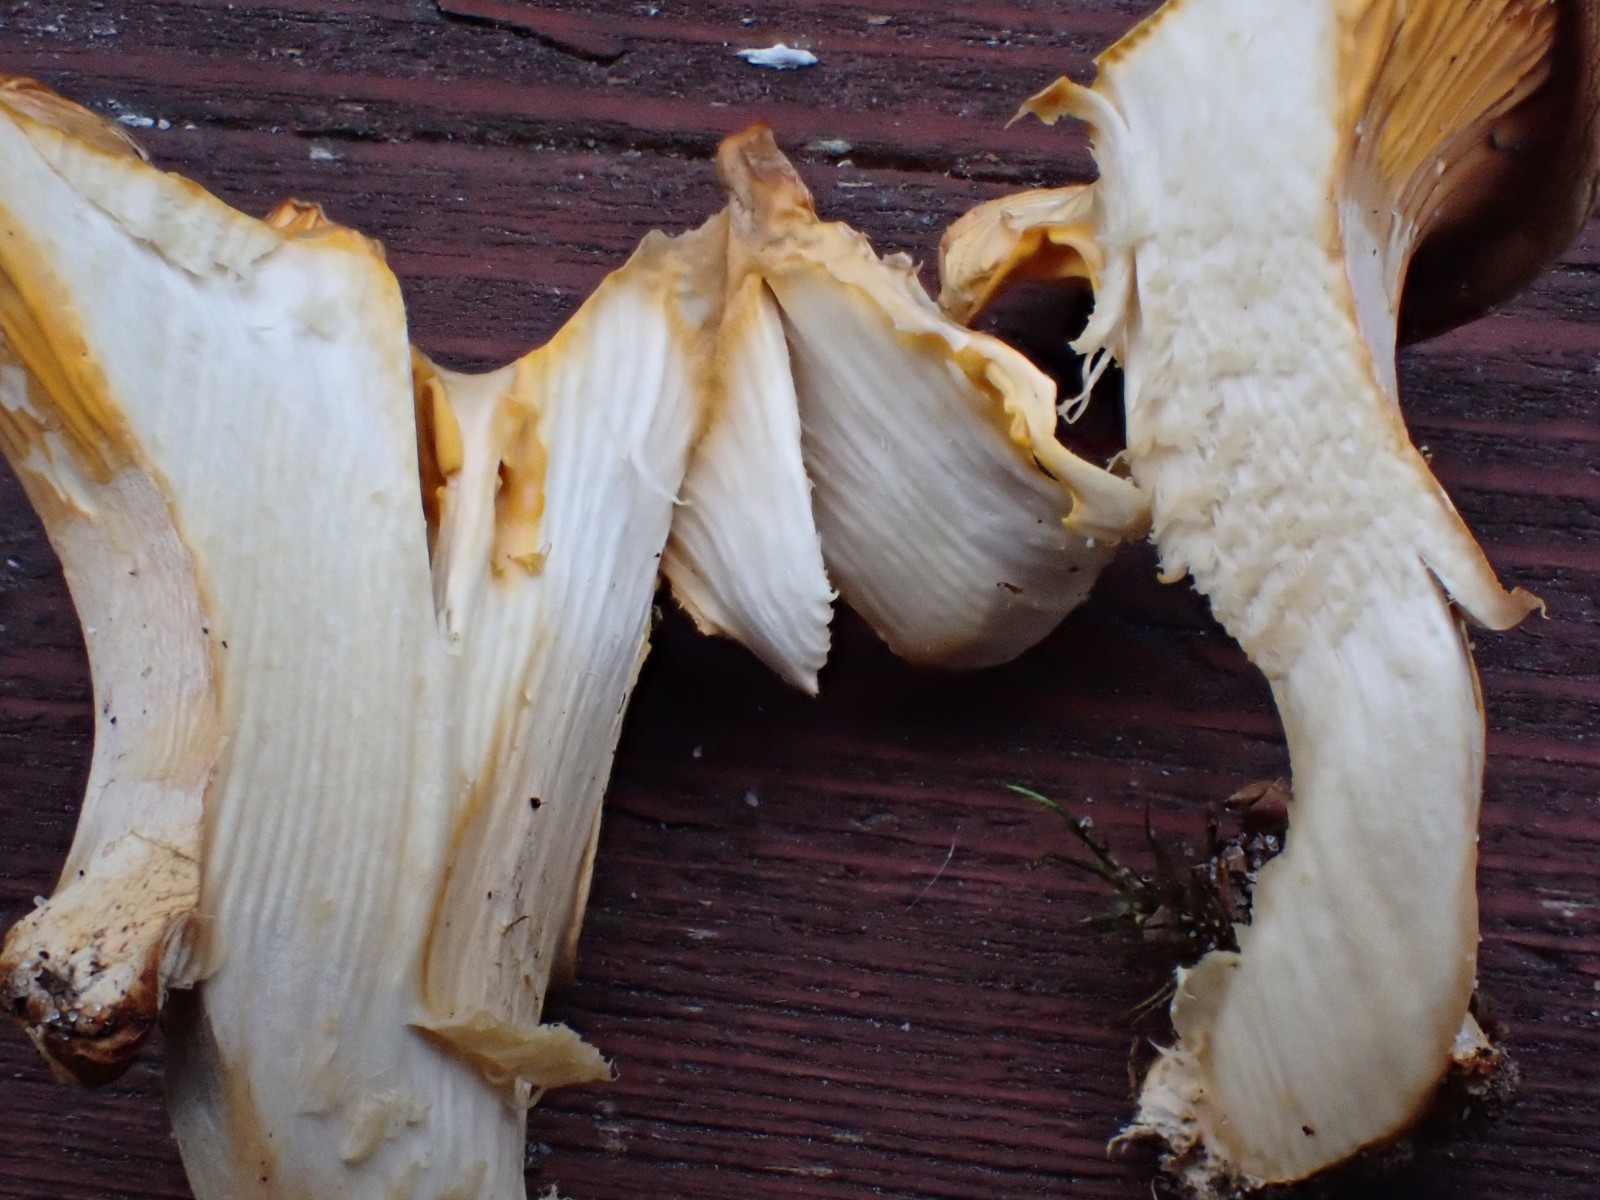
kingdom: Fungi
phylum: Basidiomycota
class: Agaricomycetes
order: Cantharellales
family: Hydnaceae
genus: Cantharellus
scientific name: Cantharellus cibarius
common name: almindelig kantarel
